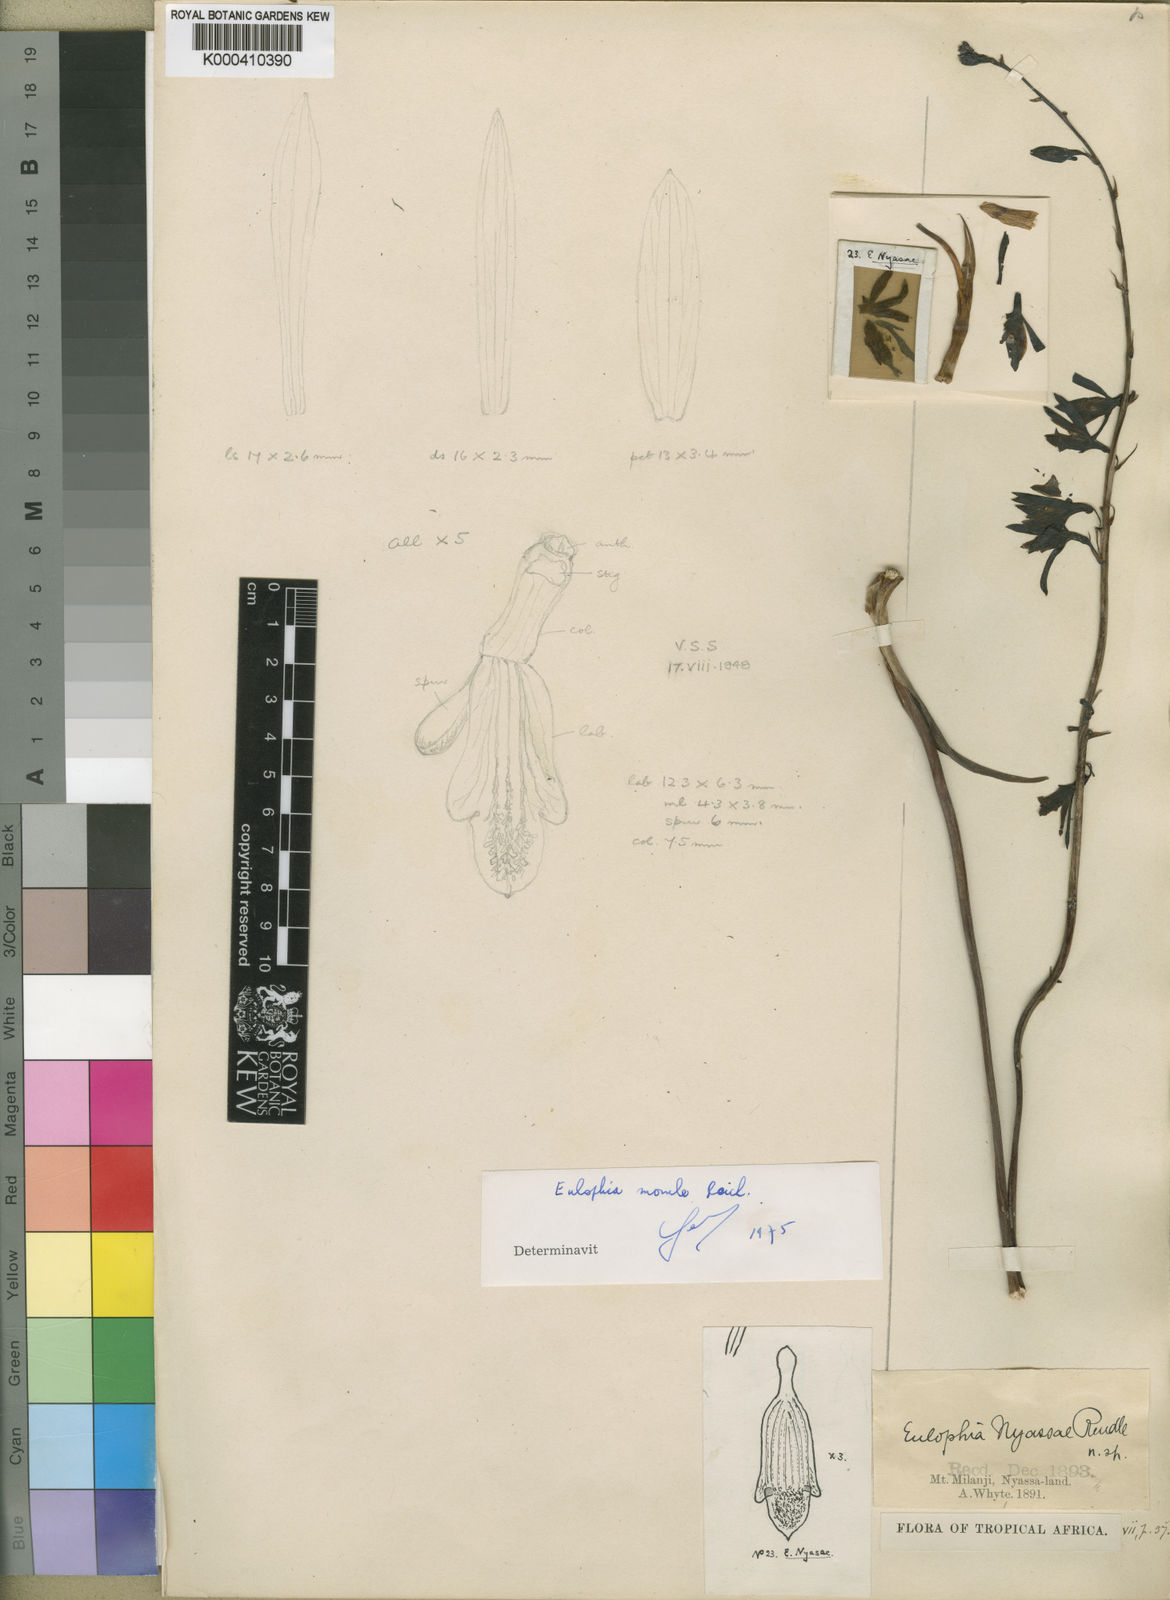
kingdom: Plantae
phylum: Tracheophyta
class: Liliopsida
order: Asparagales
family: Orchidaceae
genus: Eulophia
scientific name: Eulophia nyasae
